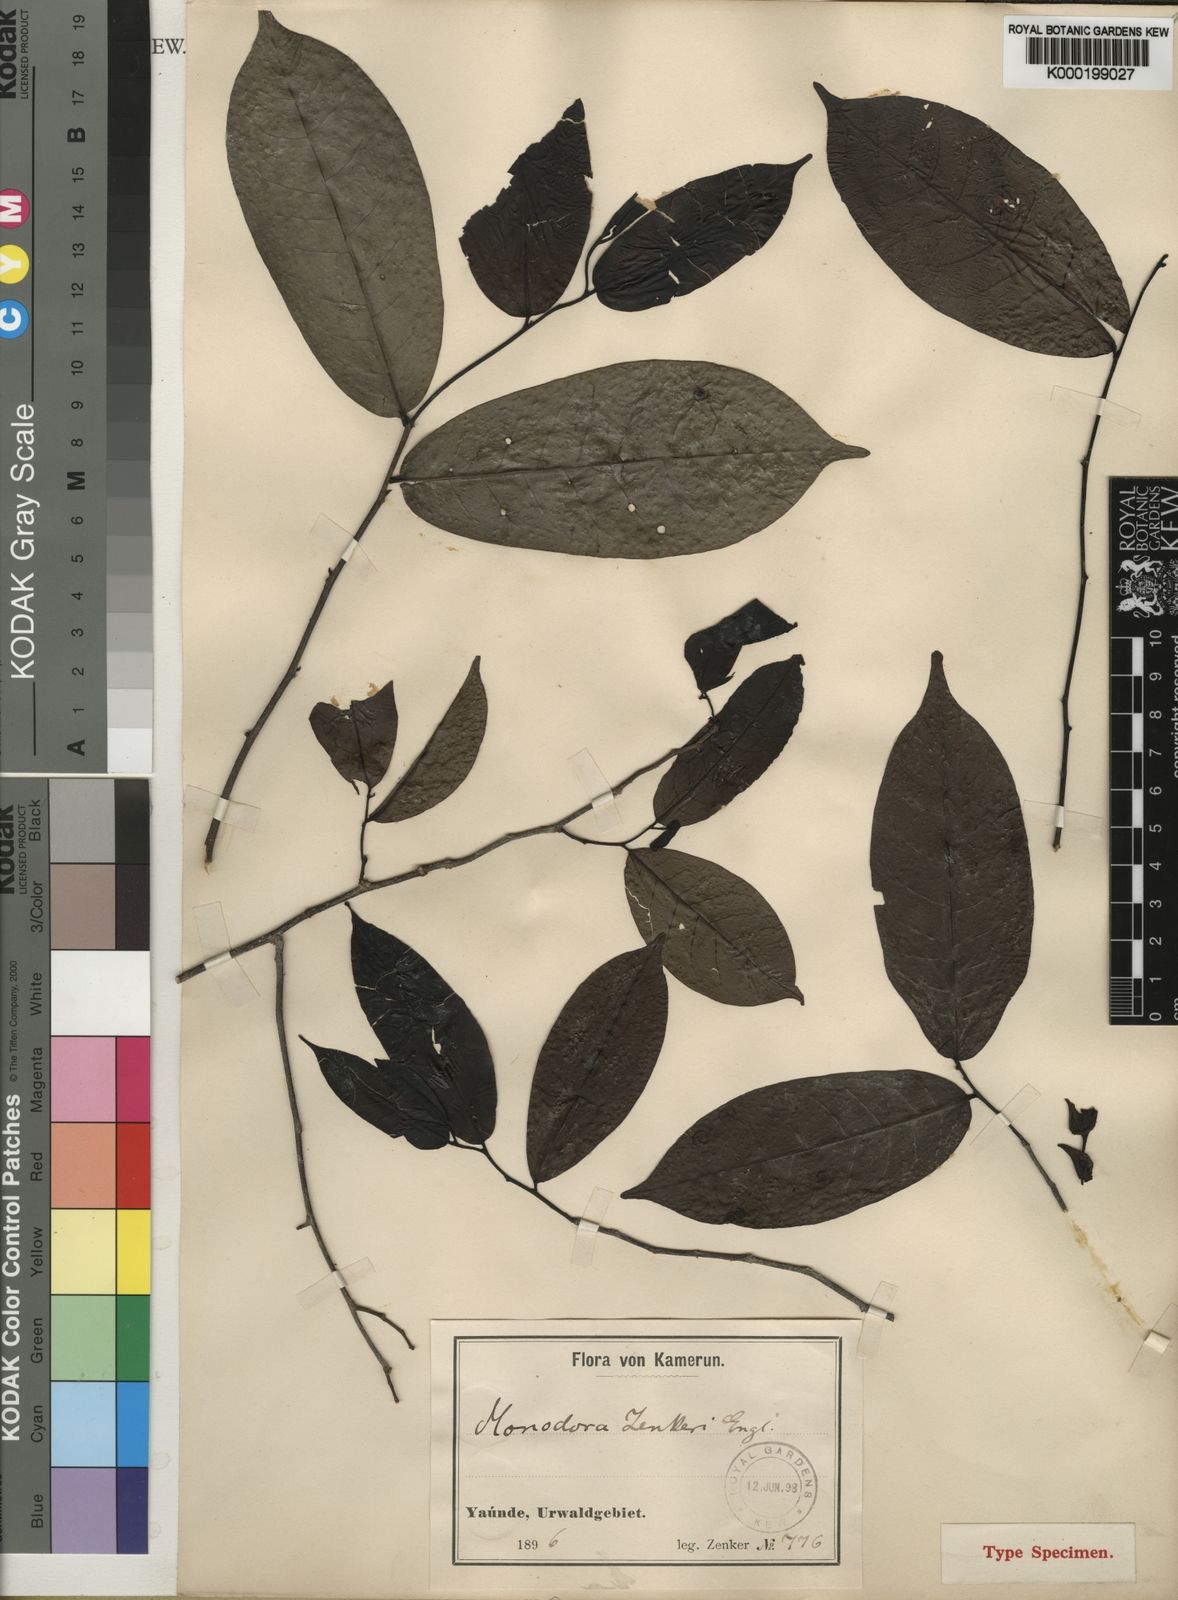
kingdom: Plantae
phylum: Tracheophyta
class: Magnoliopsida
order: Magnoliales
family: Annonaceae
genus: Monodora
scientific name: Monodora zenkeri
